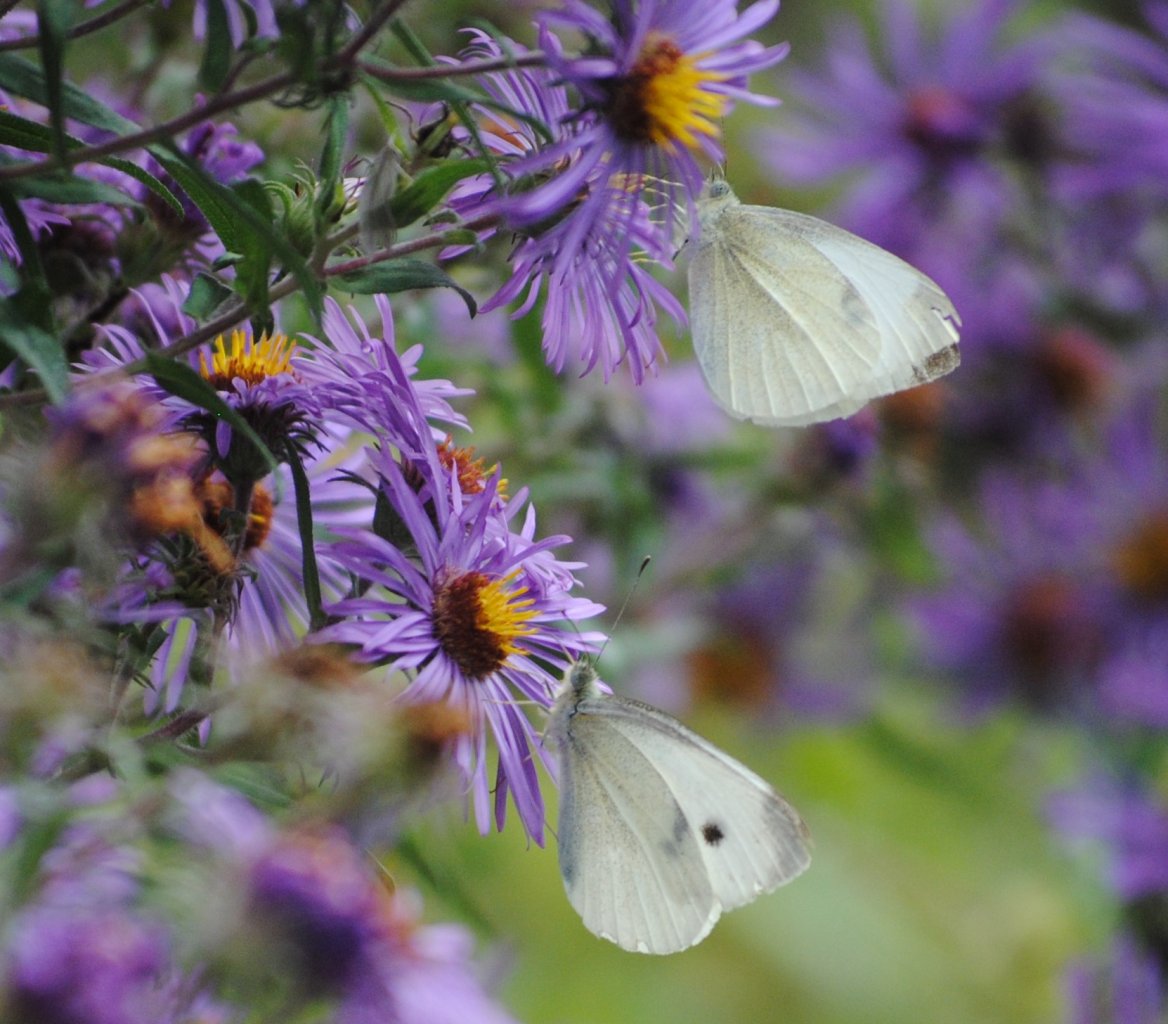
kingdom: Animalia
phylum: Arthropoda
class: Insecta
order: Lepidoptera
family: Pieridae
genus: Pieris
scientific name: Pieris rapae
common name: Cabbage White
